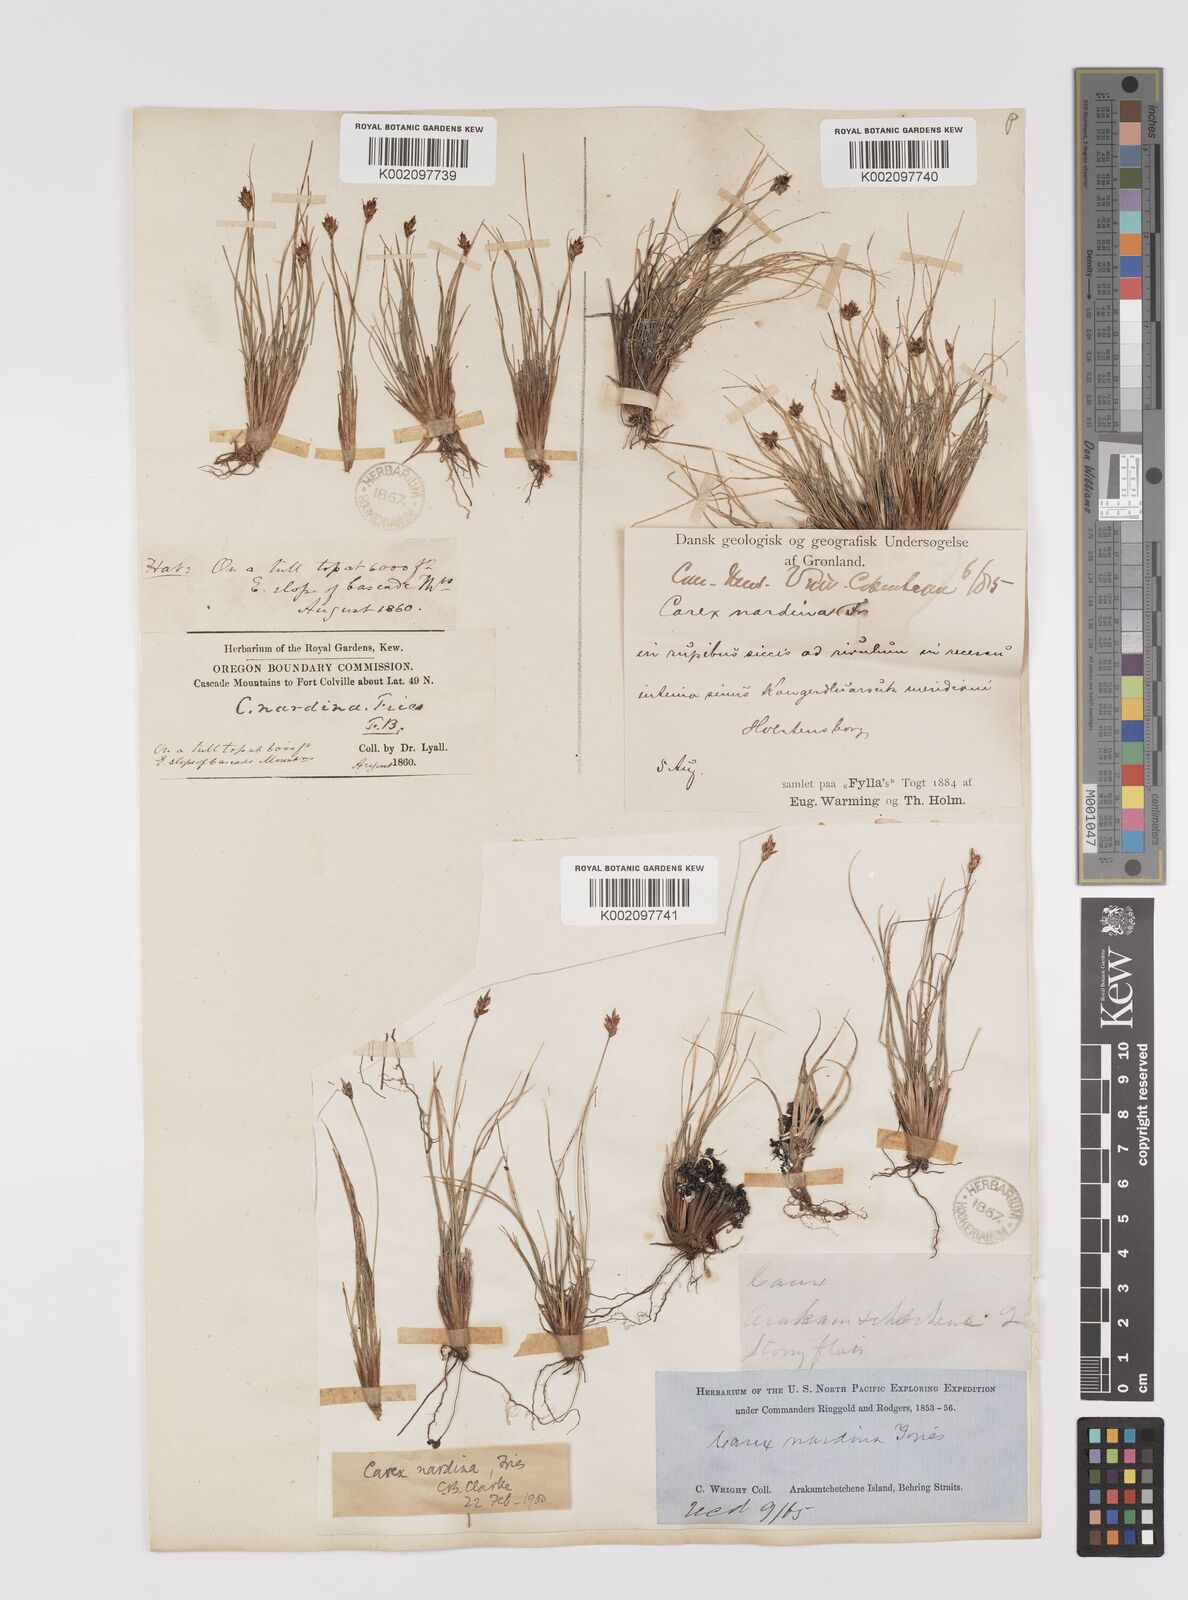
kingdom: Plantae
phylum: Tracheophyta
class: Liliopsida
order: Poales
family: Cyperaceae
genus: Carex
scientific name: Carex nardina
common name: Nard sedge
